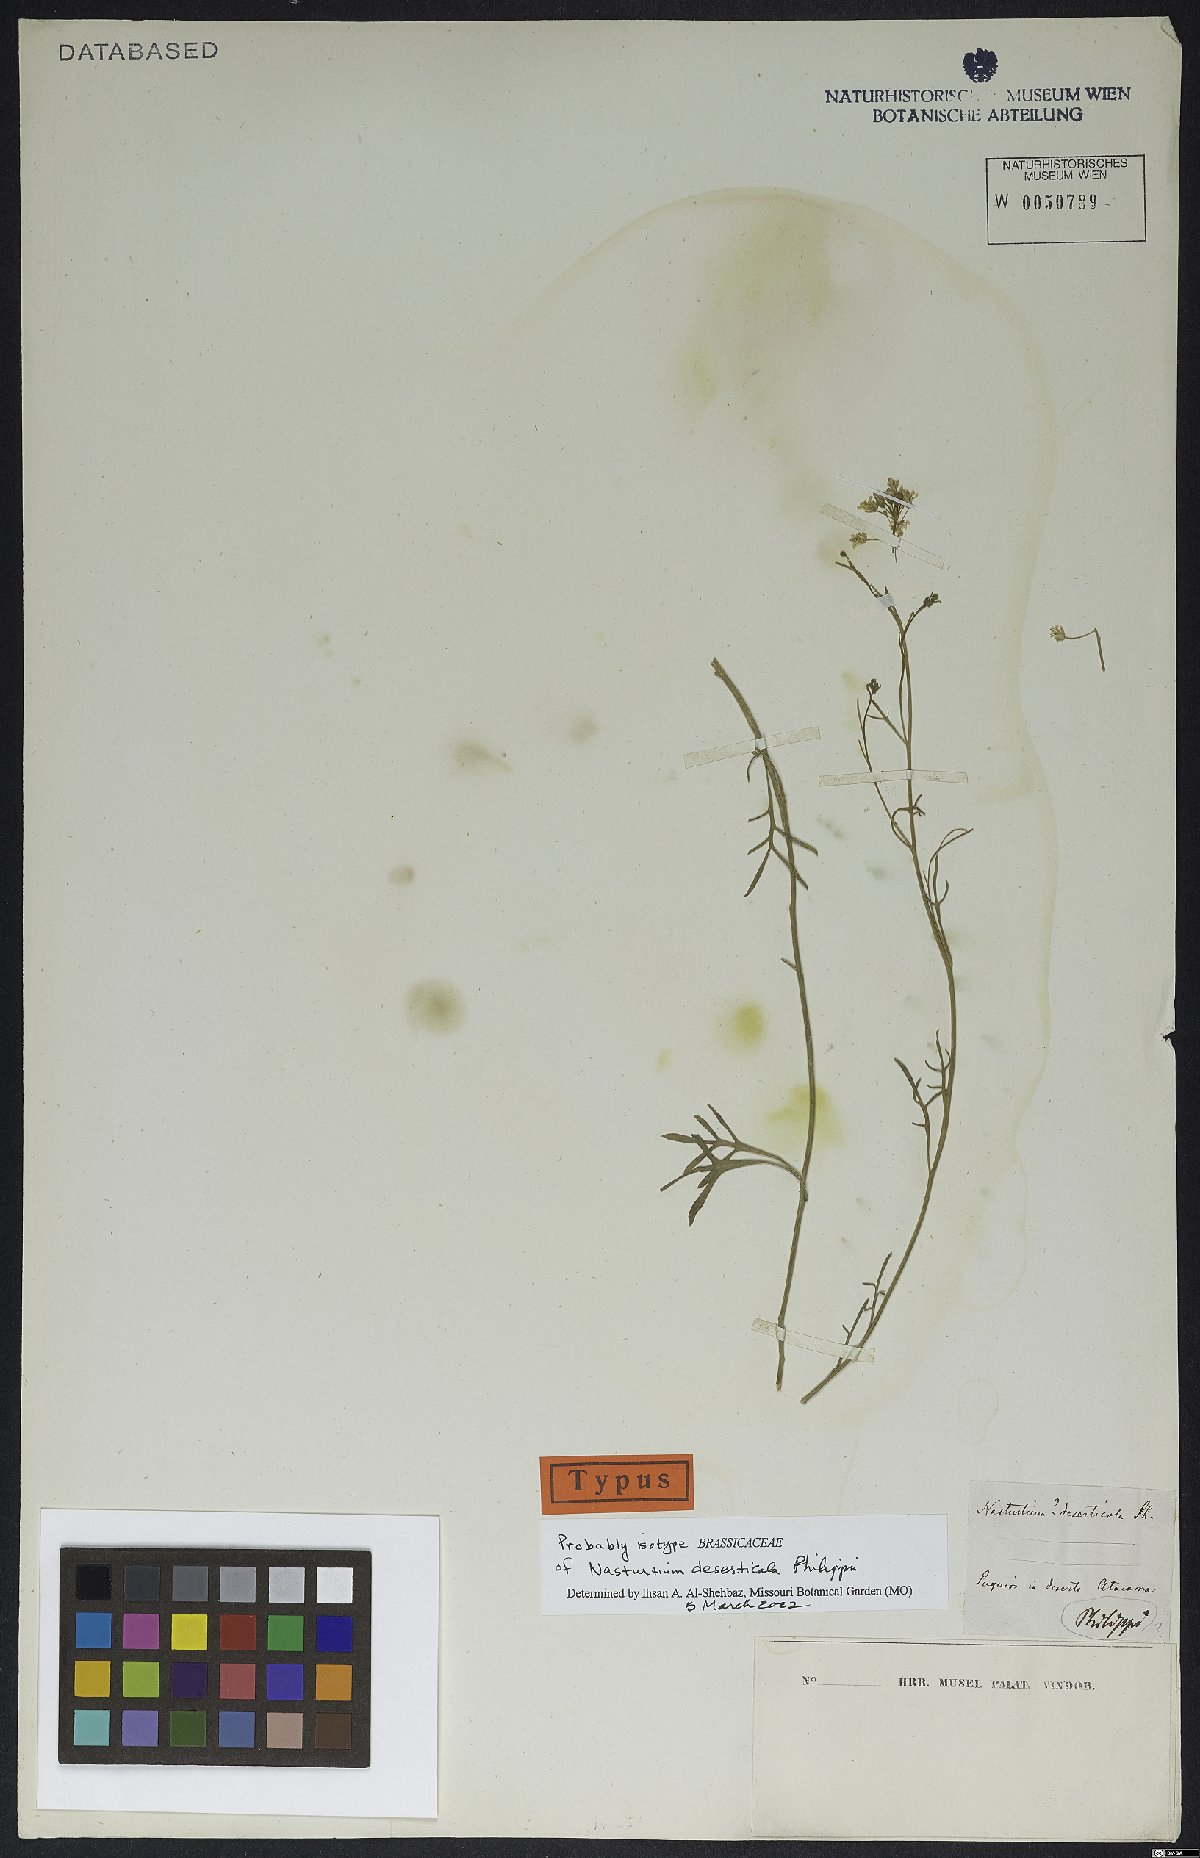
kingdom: Plantae
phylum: Tracheophyta
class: Magnoliopsida
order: Brassicales
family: Brassicaceae
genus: Sibara
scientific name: Sibara pinnata
